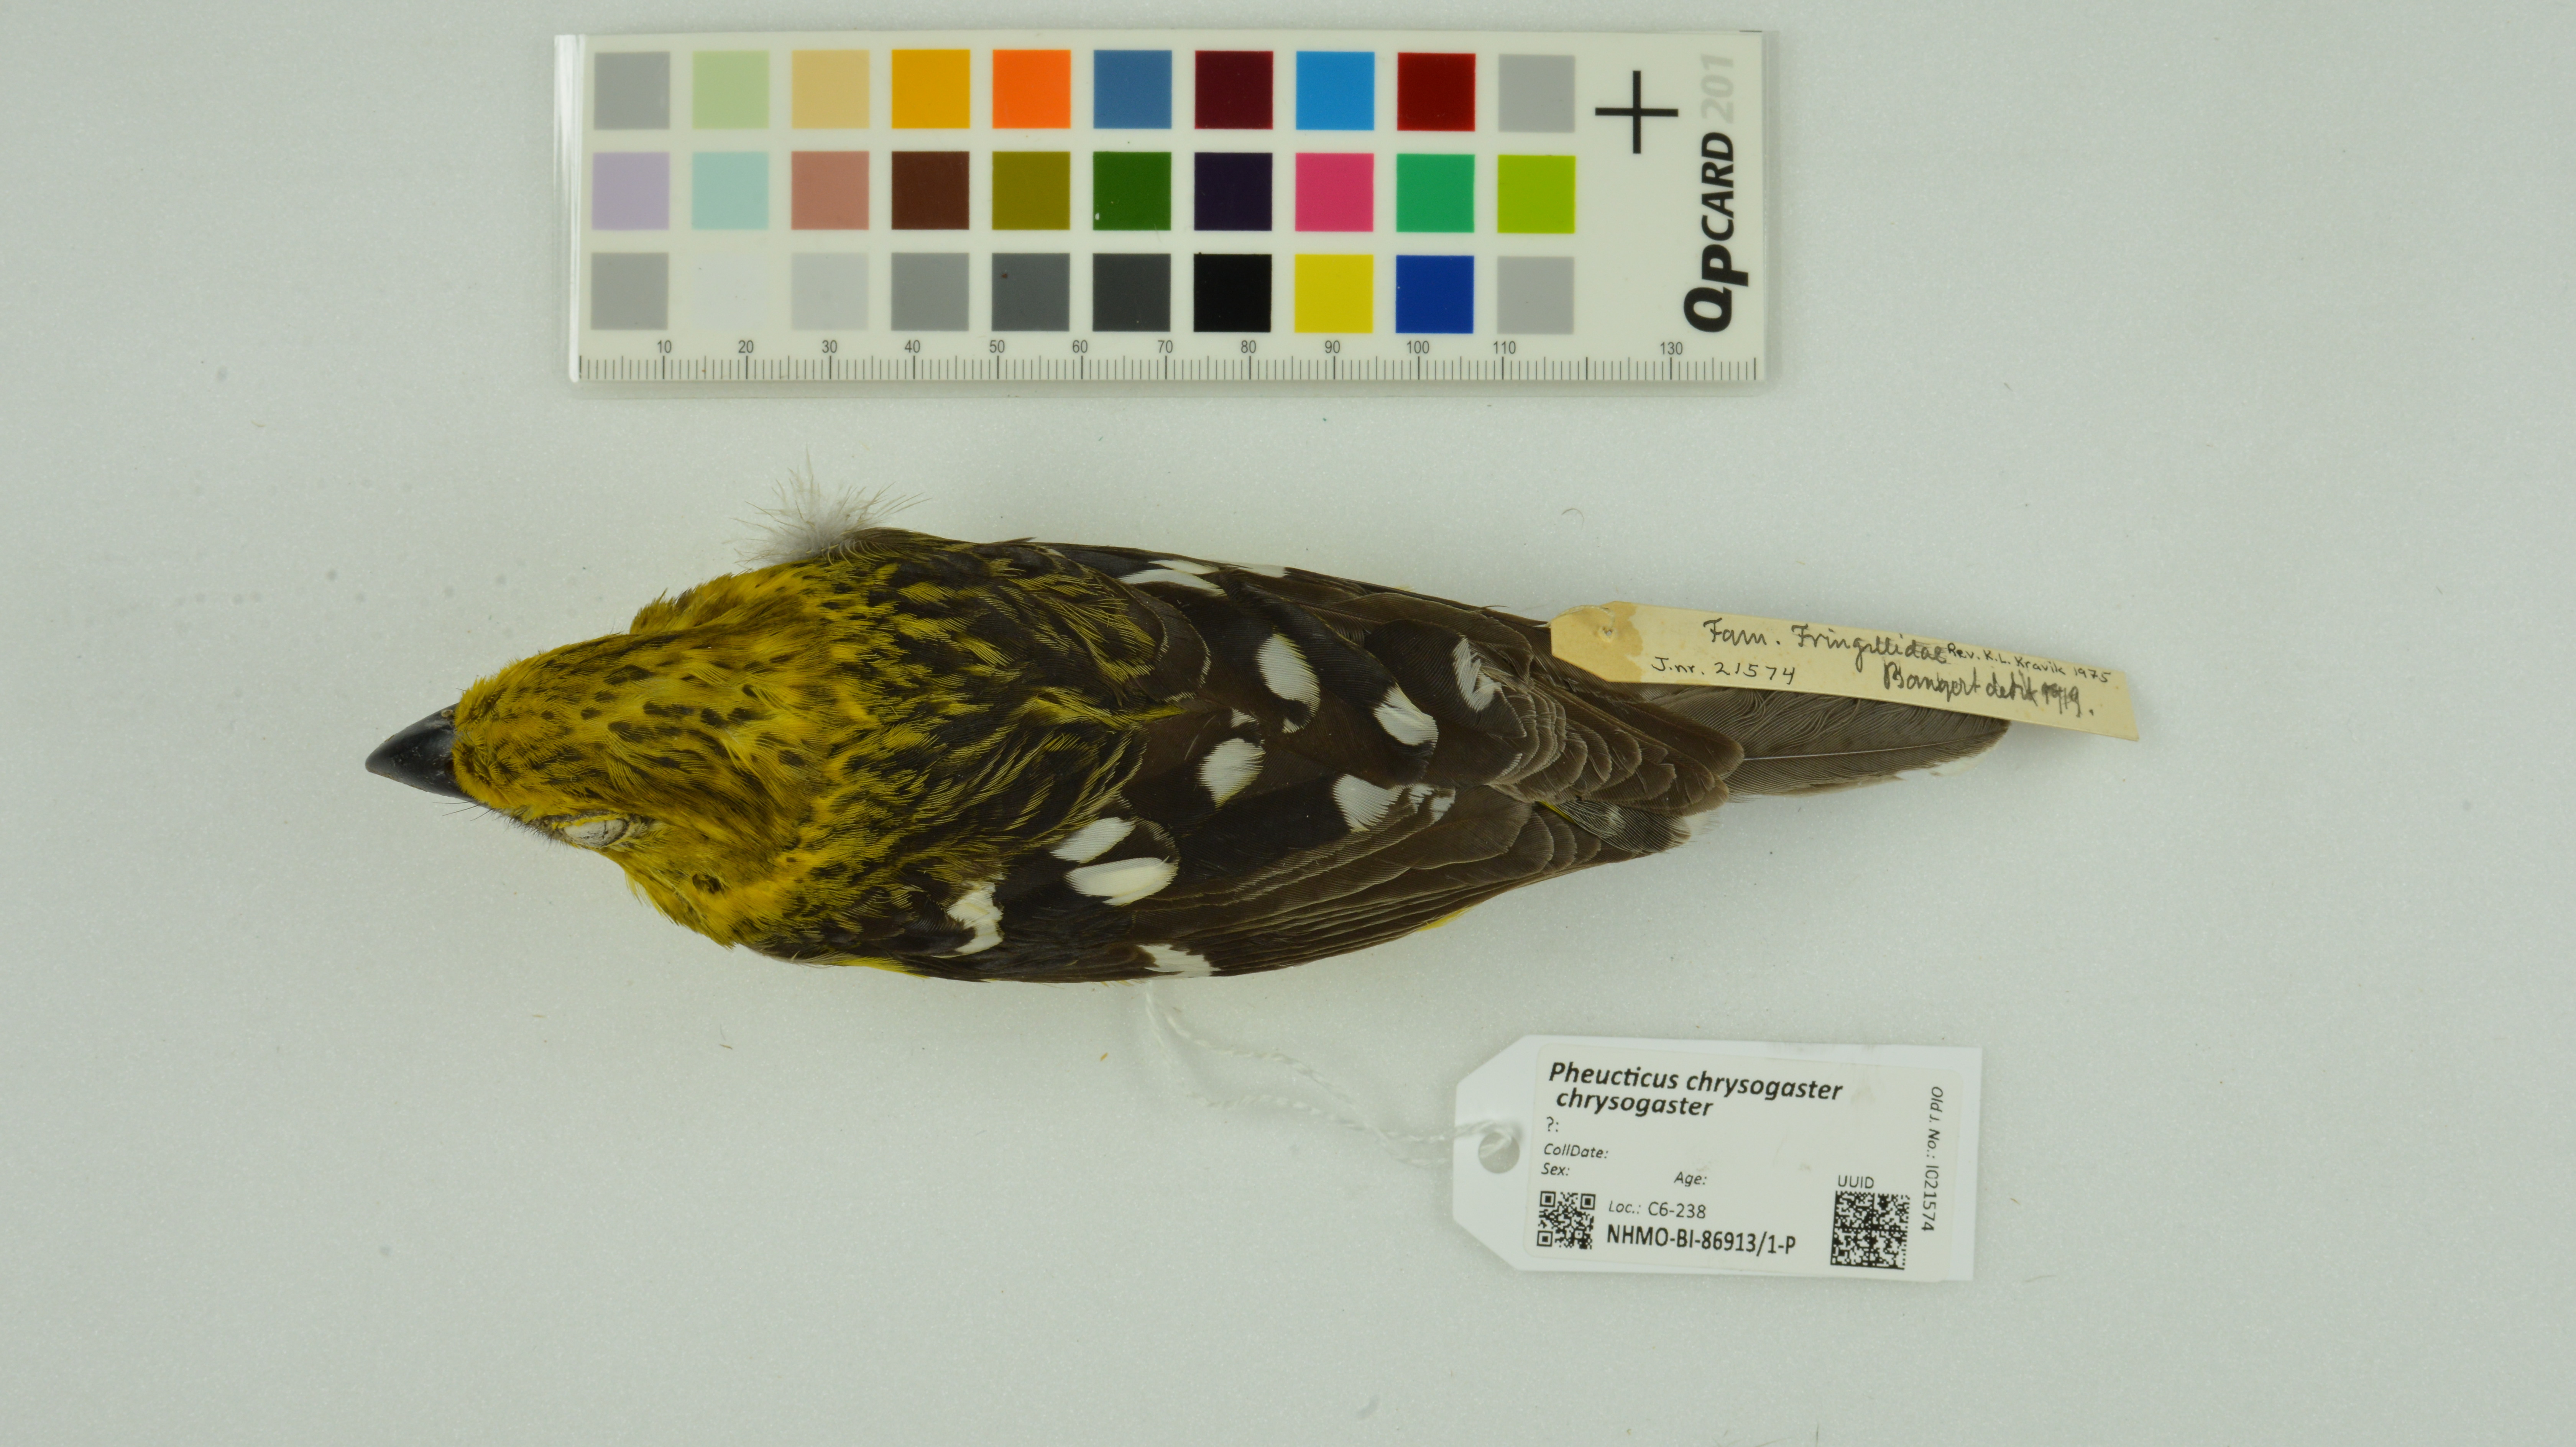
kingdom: Animalia
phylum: Chordata
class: Aves
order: Passeriformes
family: Cardinalidae
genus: Pheucticus
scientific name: Pheucticus chrysogaster
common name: Golden grosbeak
